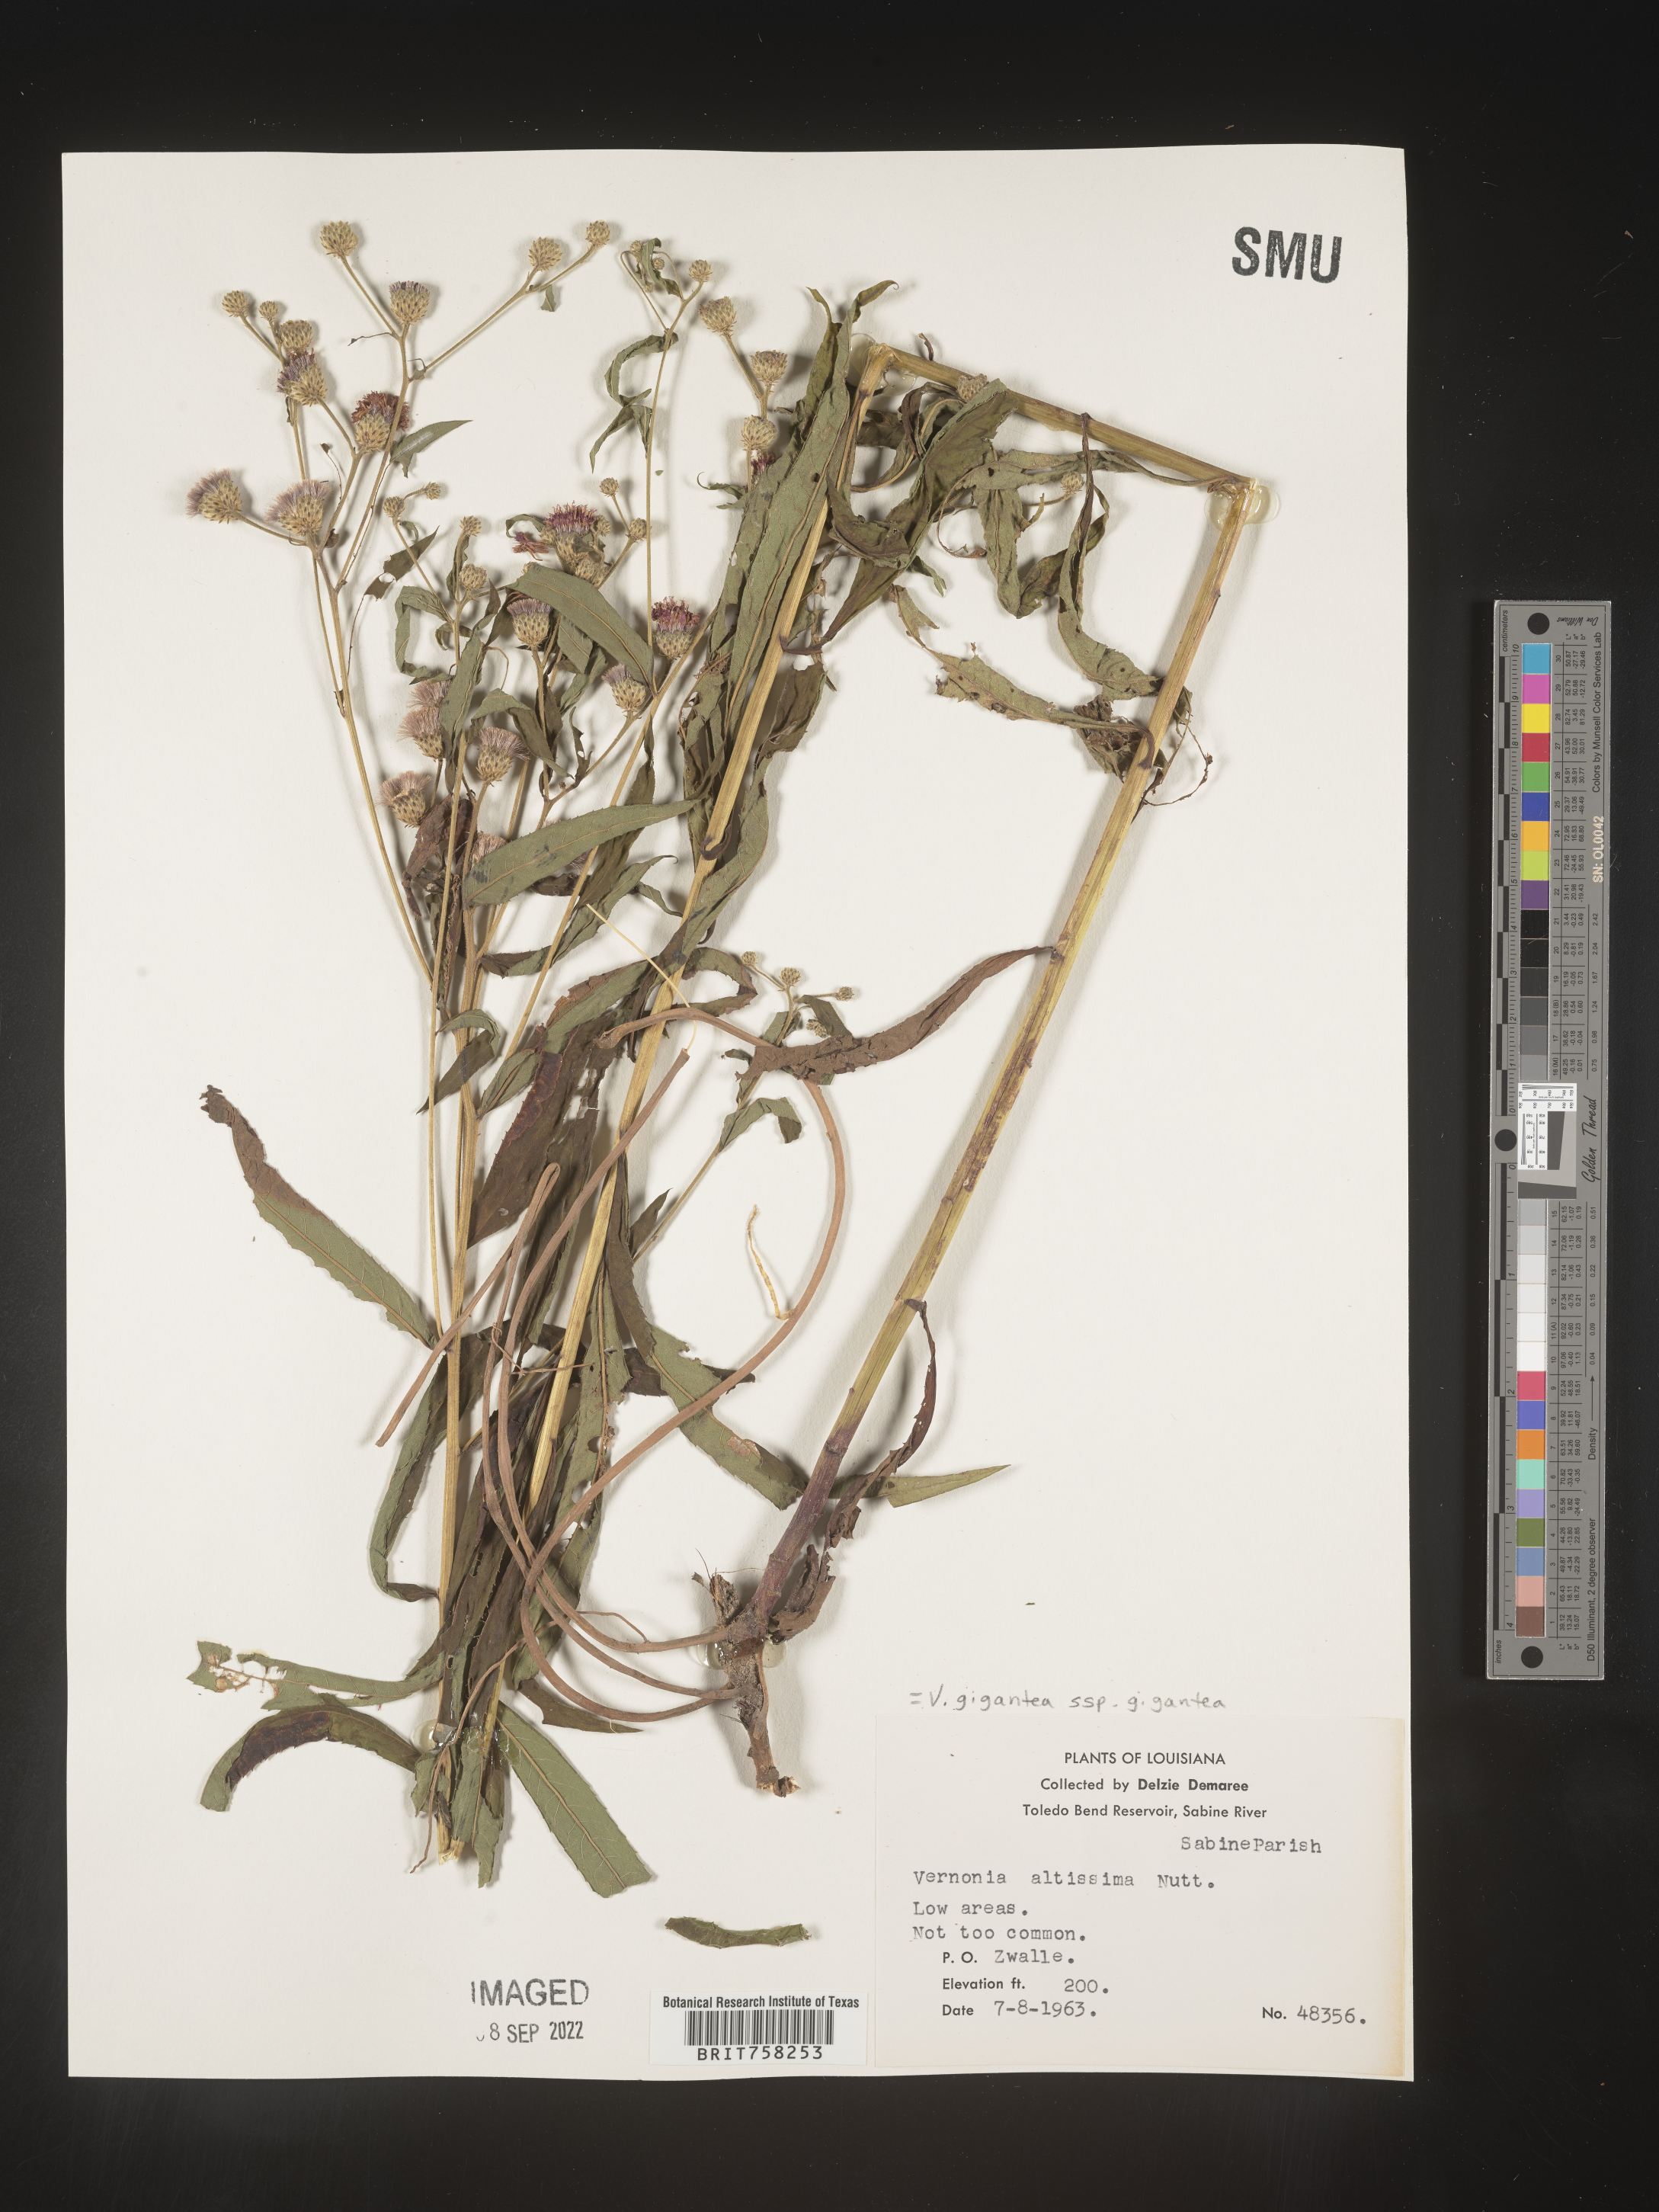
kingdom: Plantae
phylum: Tracheophyta
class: Magnoliopsida
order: Asterales
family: Asteraceae
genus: Vernonia
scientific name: Vernonia gigantea
